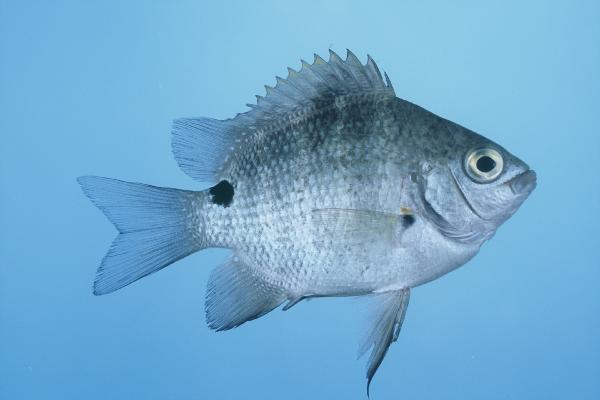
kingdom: Animalia
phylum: Chordata
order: Perciformes
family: Pomacentridae
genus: Abudefduf
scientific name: Abudefduf sordidus
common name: Blackspot sergeant
